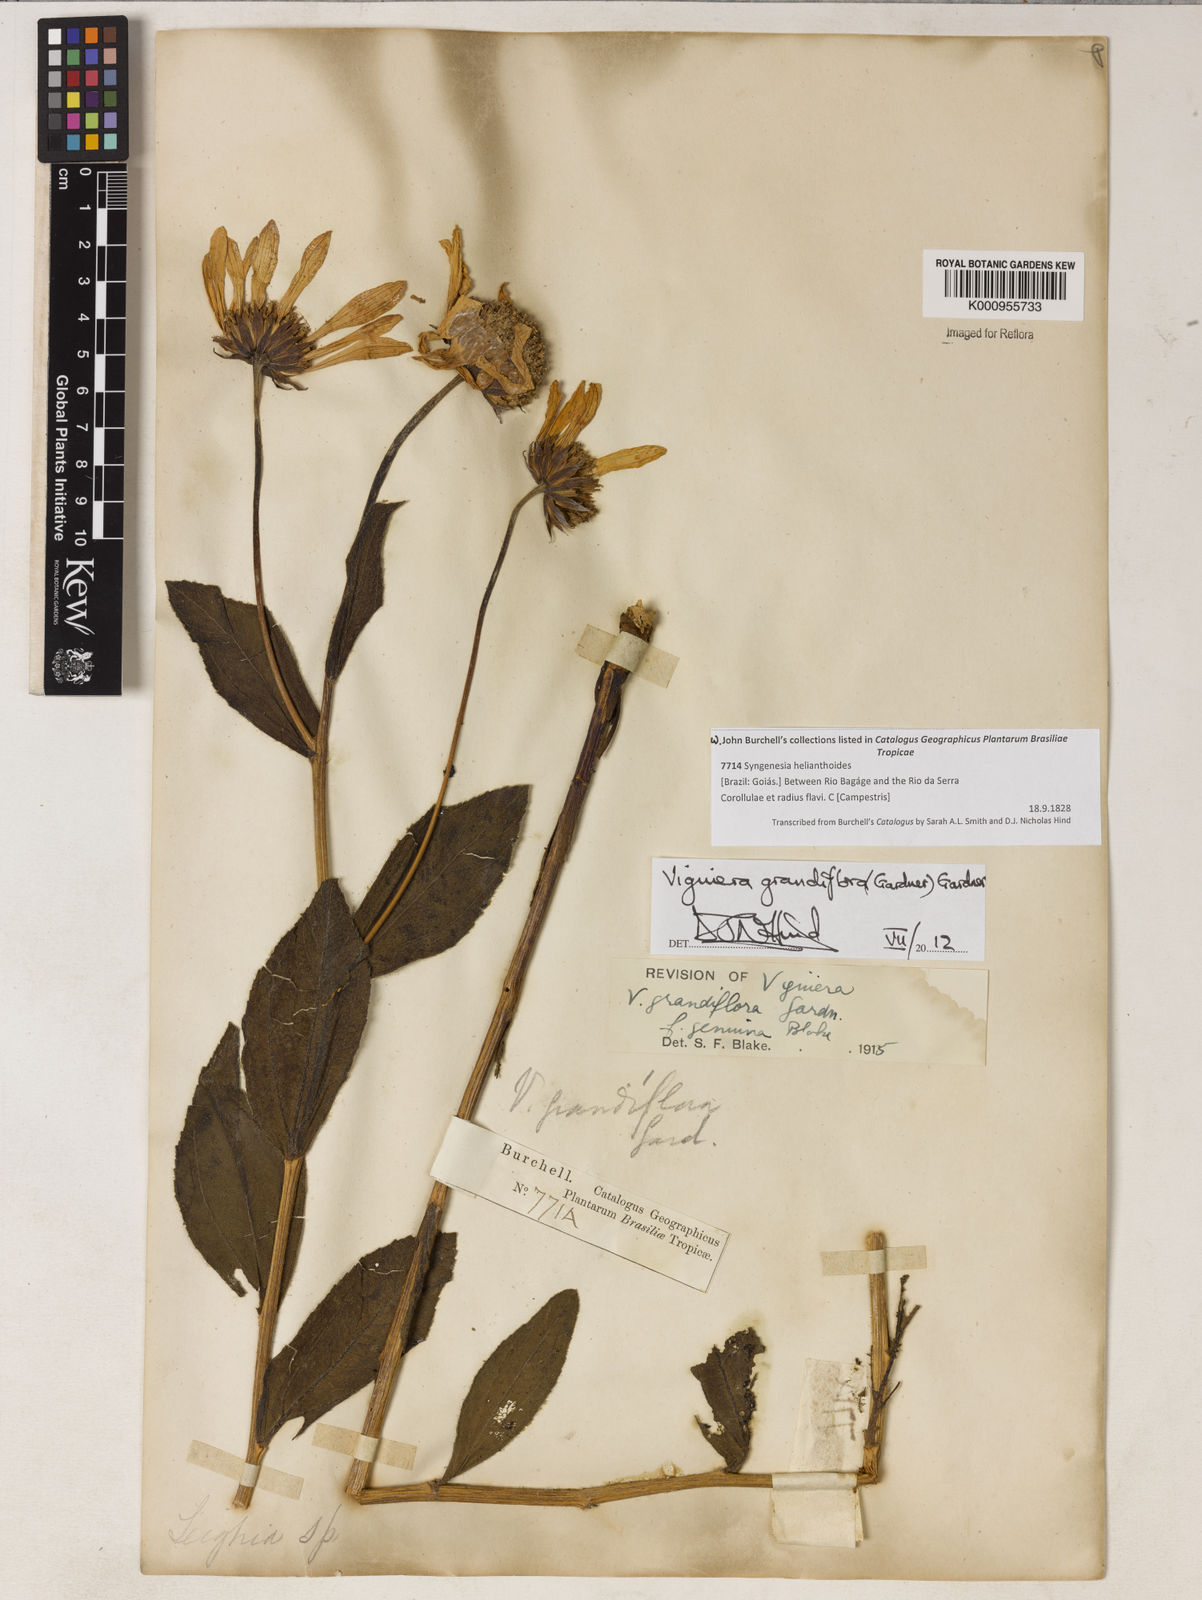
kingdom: Plantae
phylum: Tracheophyta
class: Magnoliopsida
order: Asterales
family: Asteraceae
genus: Aldama
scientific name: Aldama grandiflora
